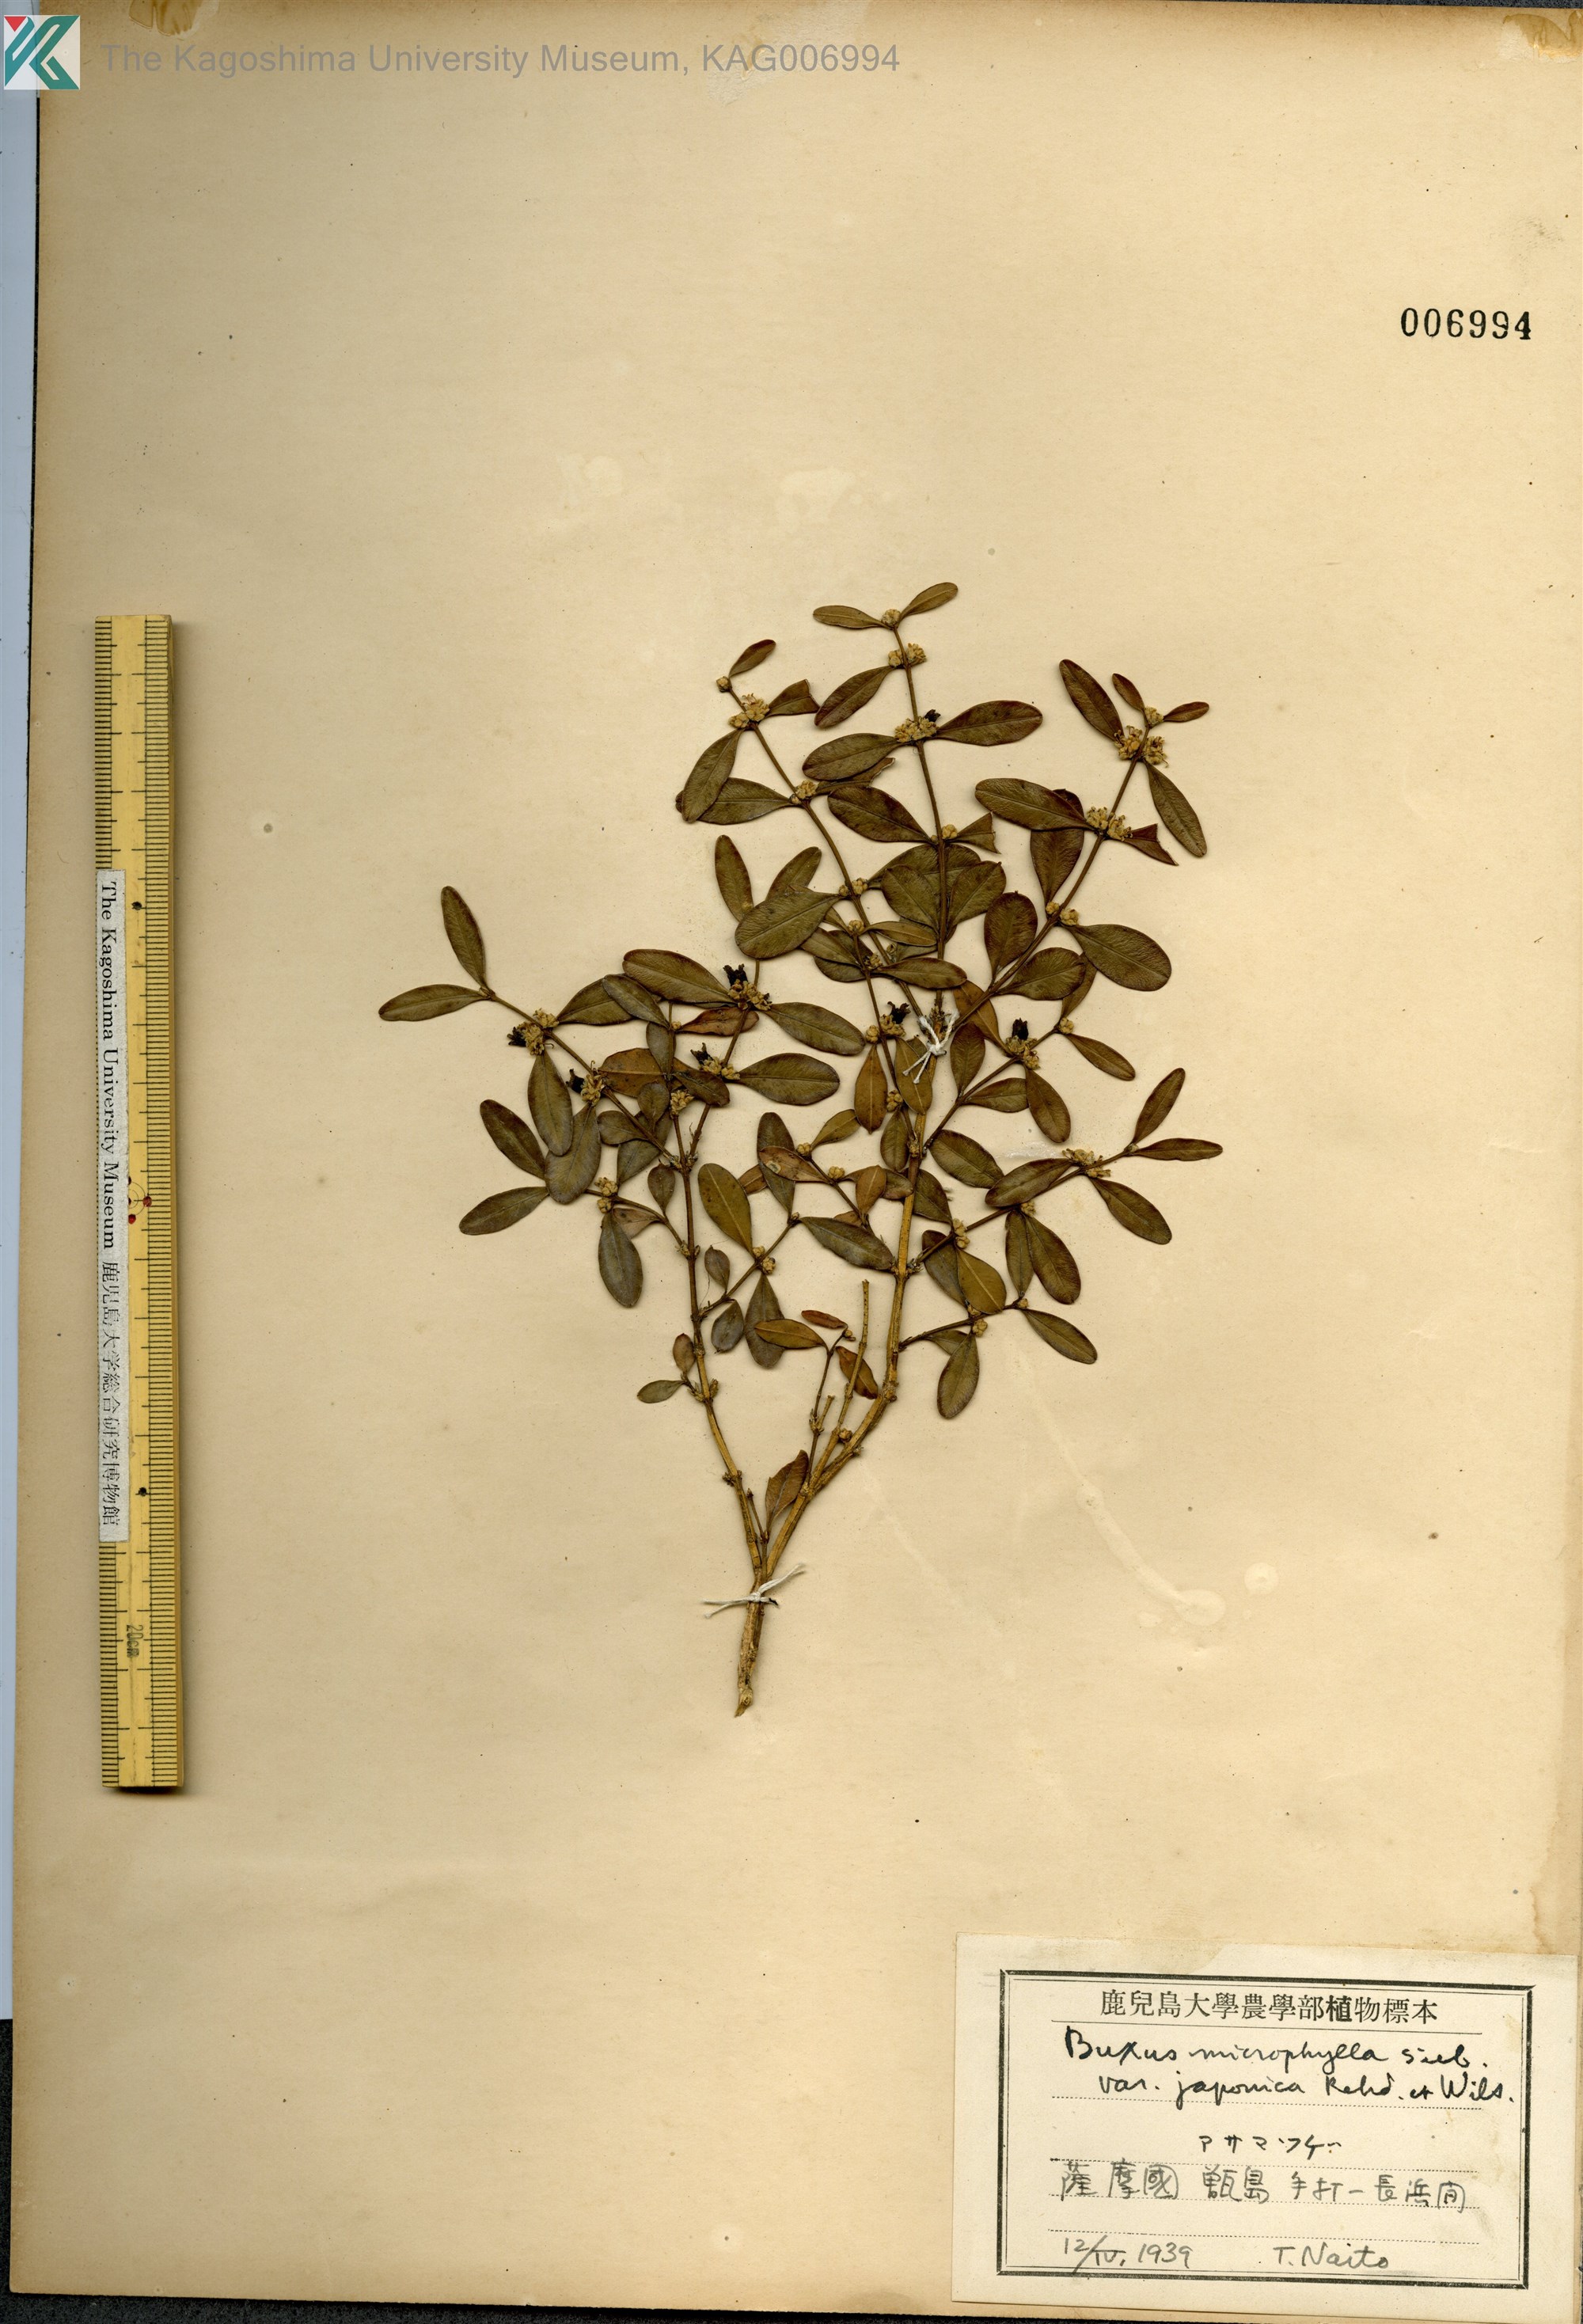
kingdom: Plantae
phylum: Tracheophyta
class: Magnoliopsida
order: Buxales
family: Buxaceae
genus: Buxus
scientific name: Buxus microphylla
